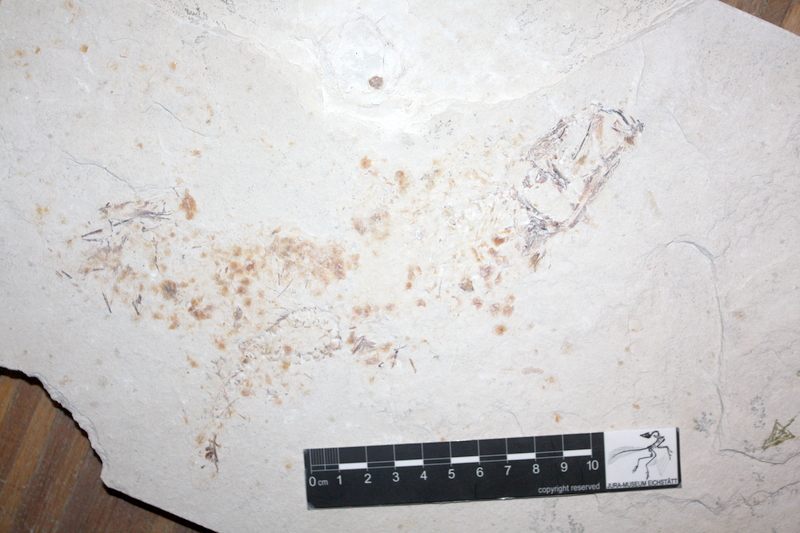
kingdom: Animalia
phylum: Chordata
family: Ascalaboidae
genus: Tharsis
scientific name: Tharsis dubius
